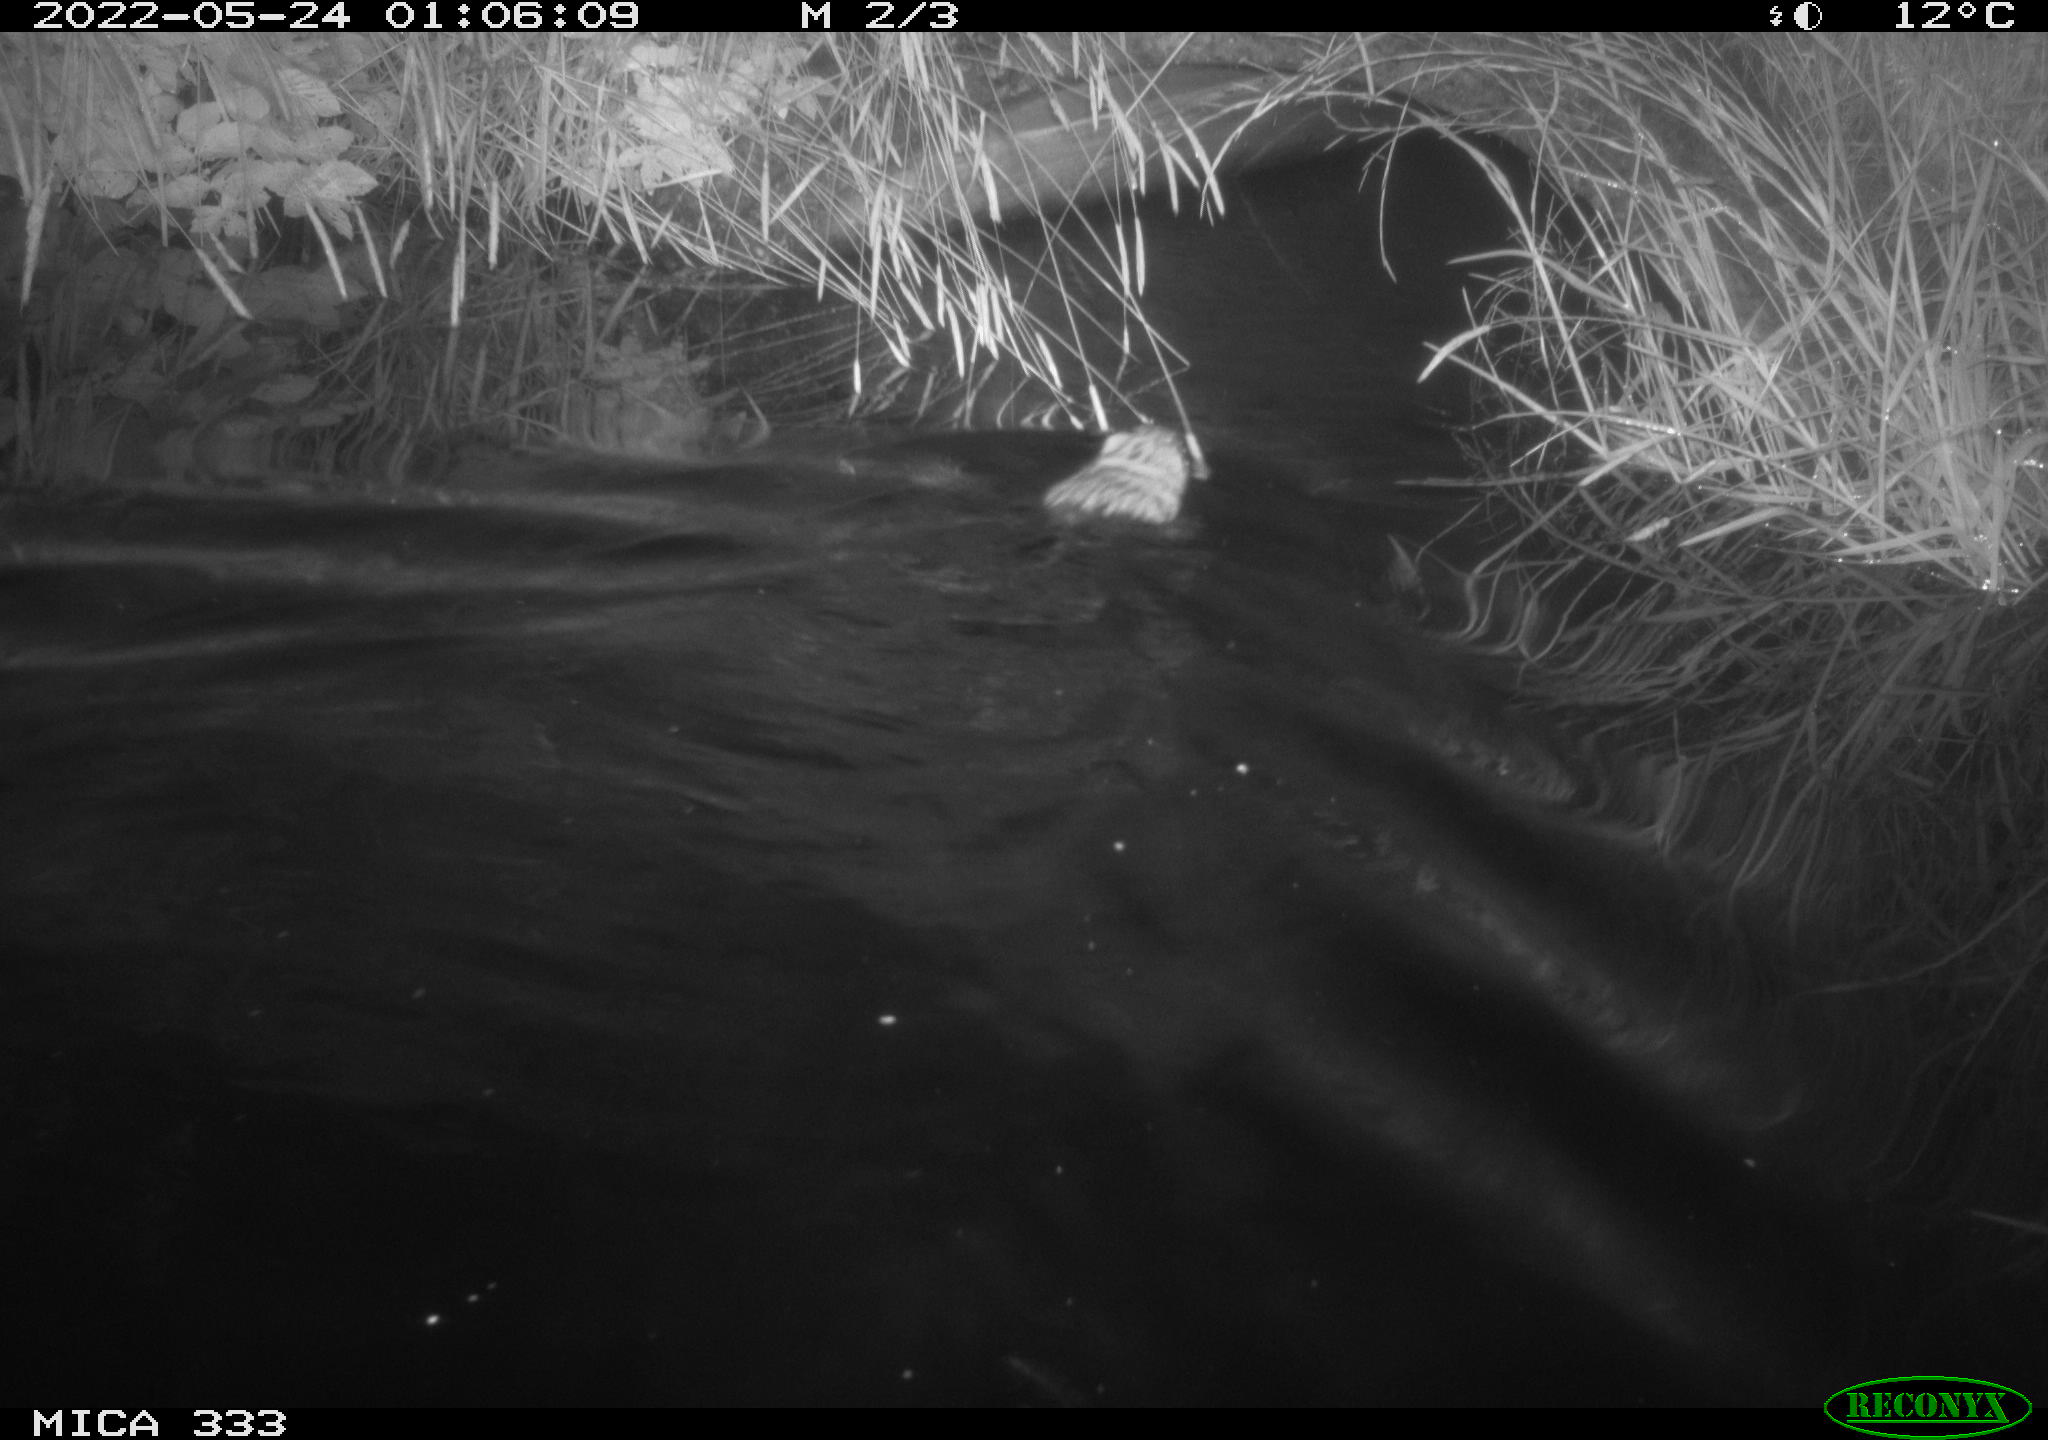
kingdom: Animalia
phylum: Chordata
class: Mammalia
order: Rodentia
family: Cricetidae
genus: Ondatra
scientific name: Ondatra zibethicus
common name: Muskrat
